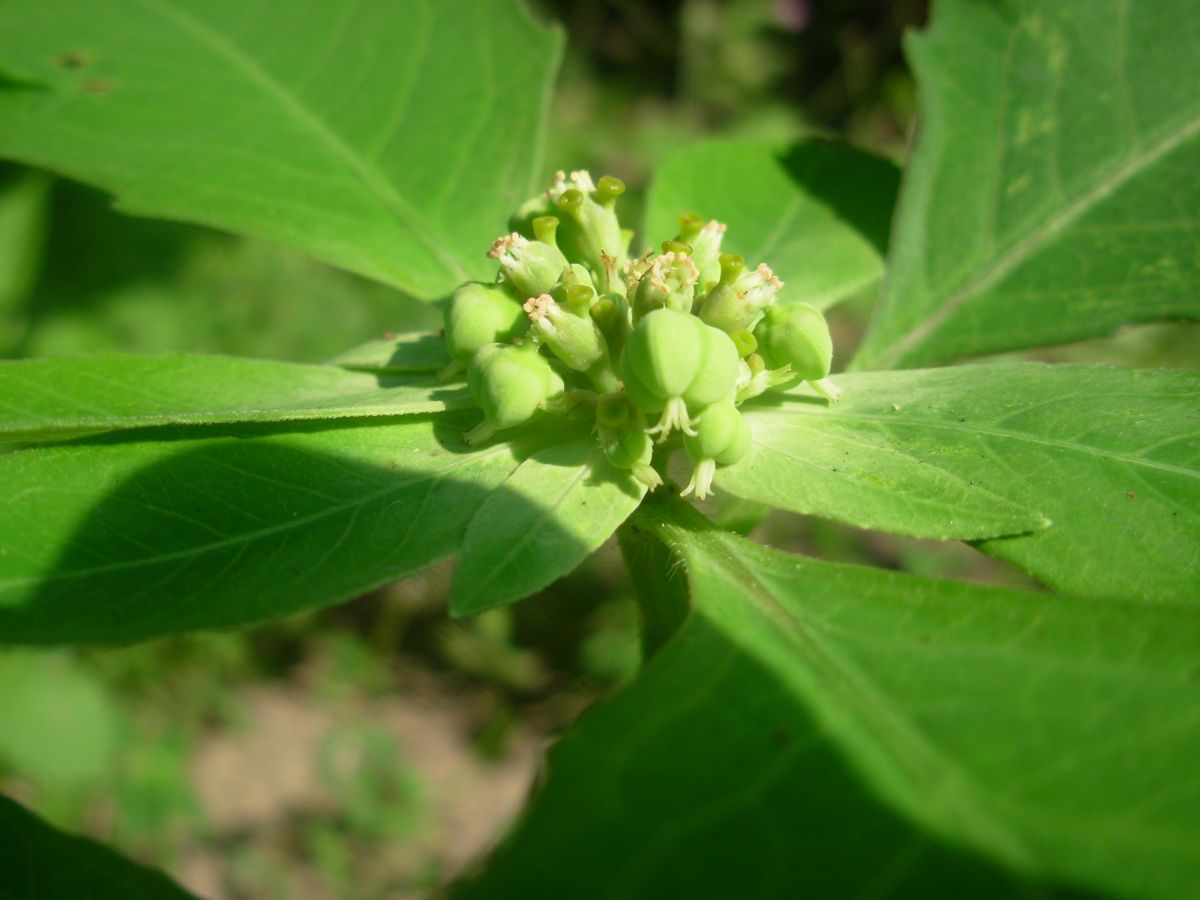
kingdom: Plantae
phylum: Tracheophyta
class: Magnoliopsida
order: Malpighiales
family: Euphorbiaceae
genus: Euphorbia
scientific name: Euphorbia heterophylla
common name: Mexican fireplant
